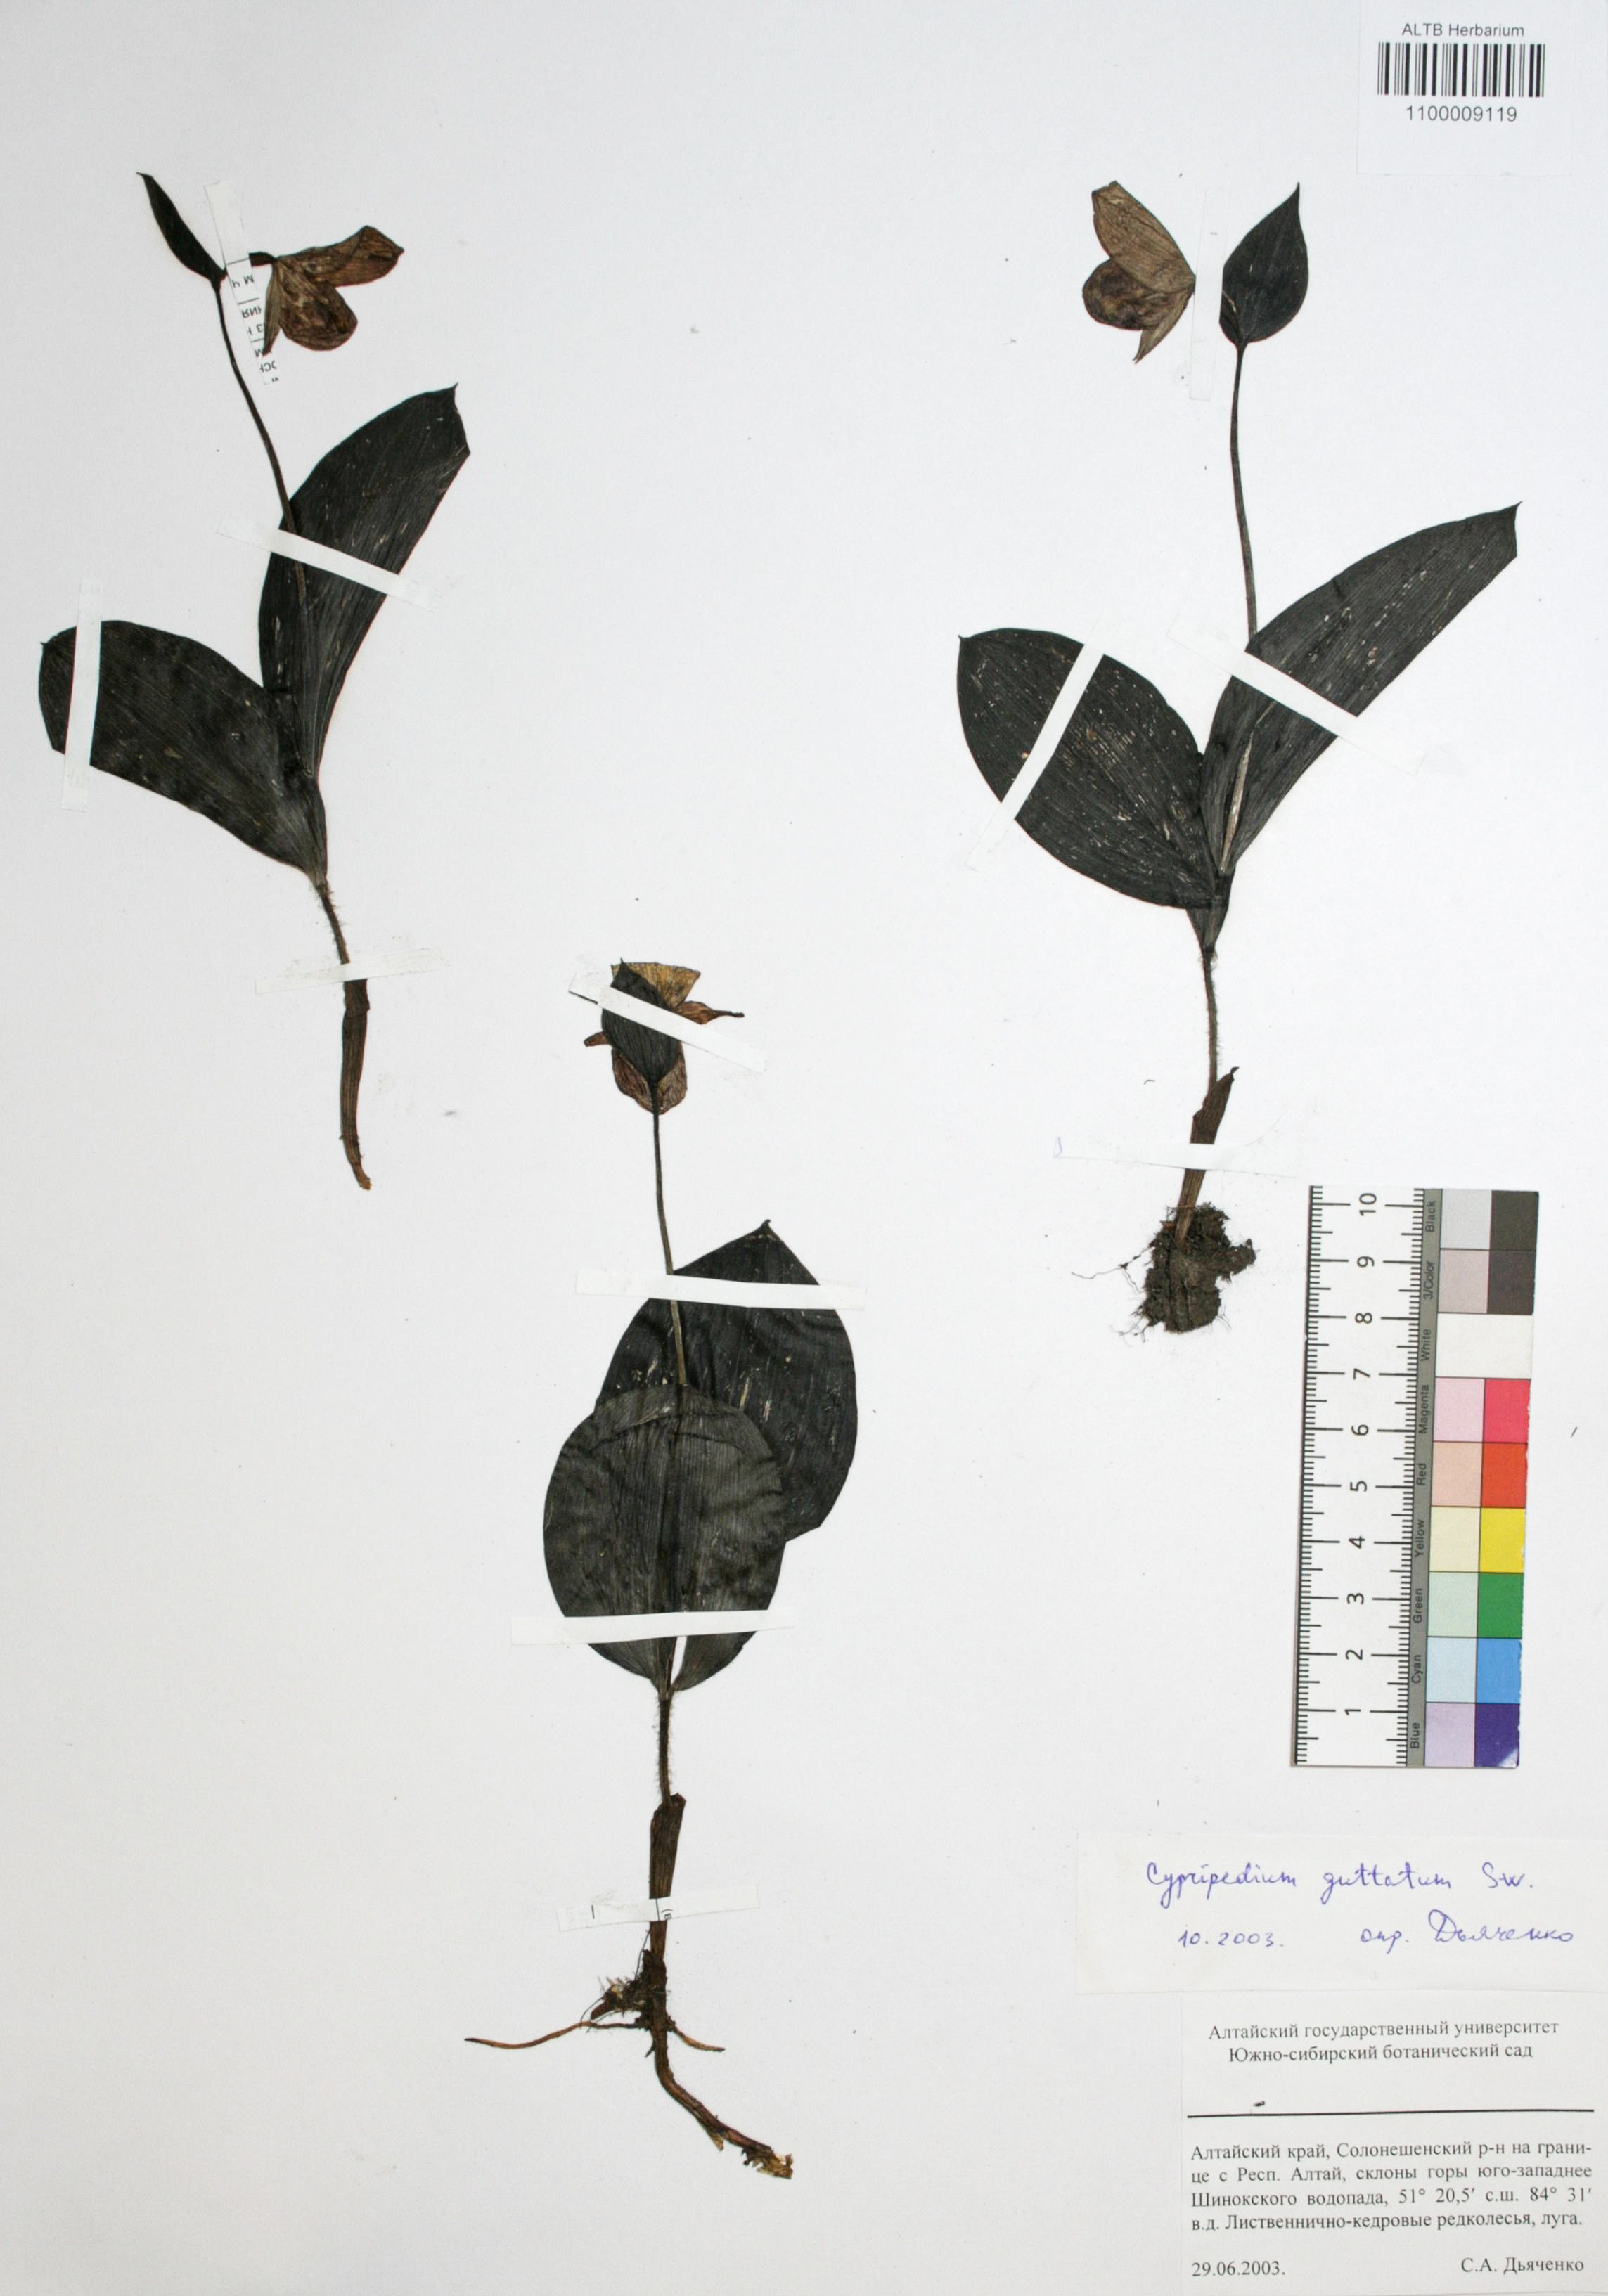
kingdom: Plantae
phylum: Tracheophyta
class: Liliopsida
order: Asparagales
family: Orchidaceae
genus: Cypripedium
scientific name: Cypripedium guttatum
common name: Pink lady slipper
